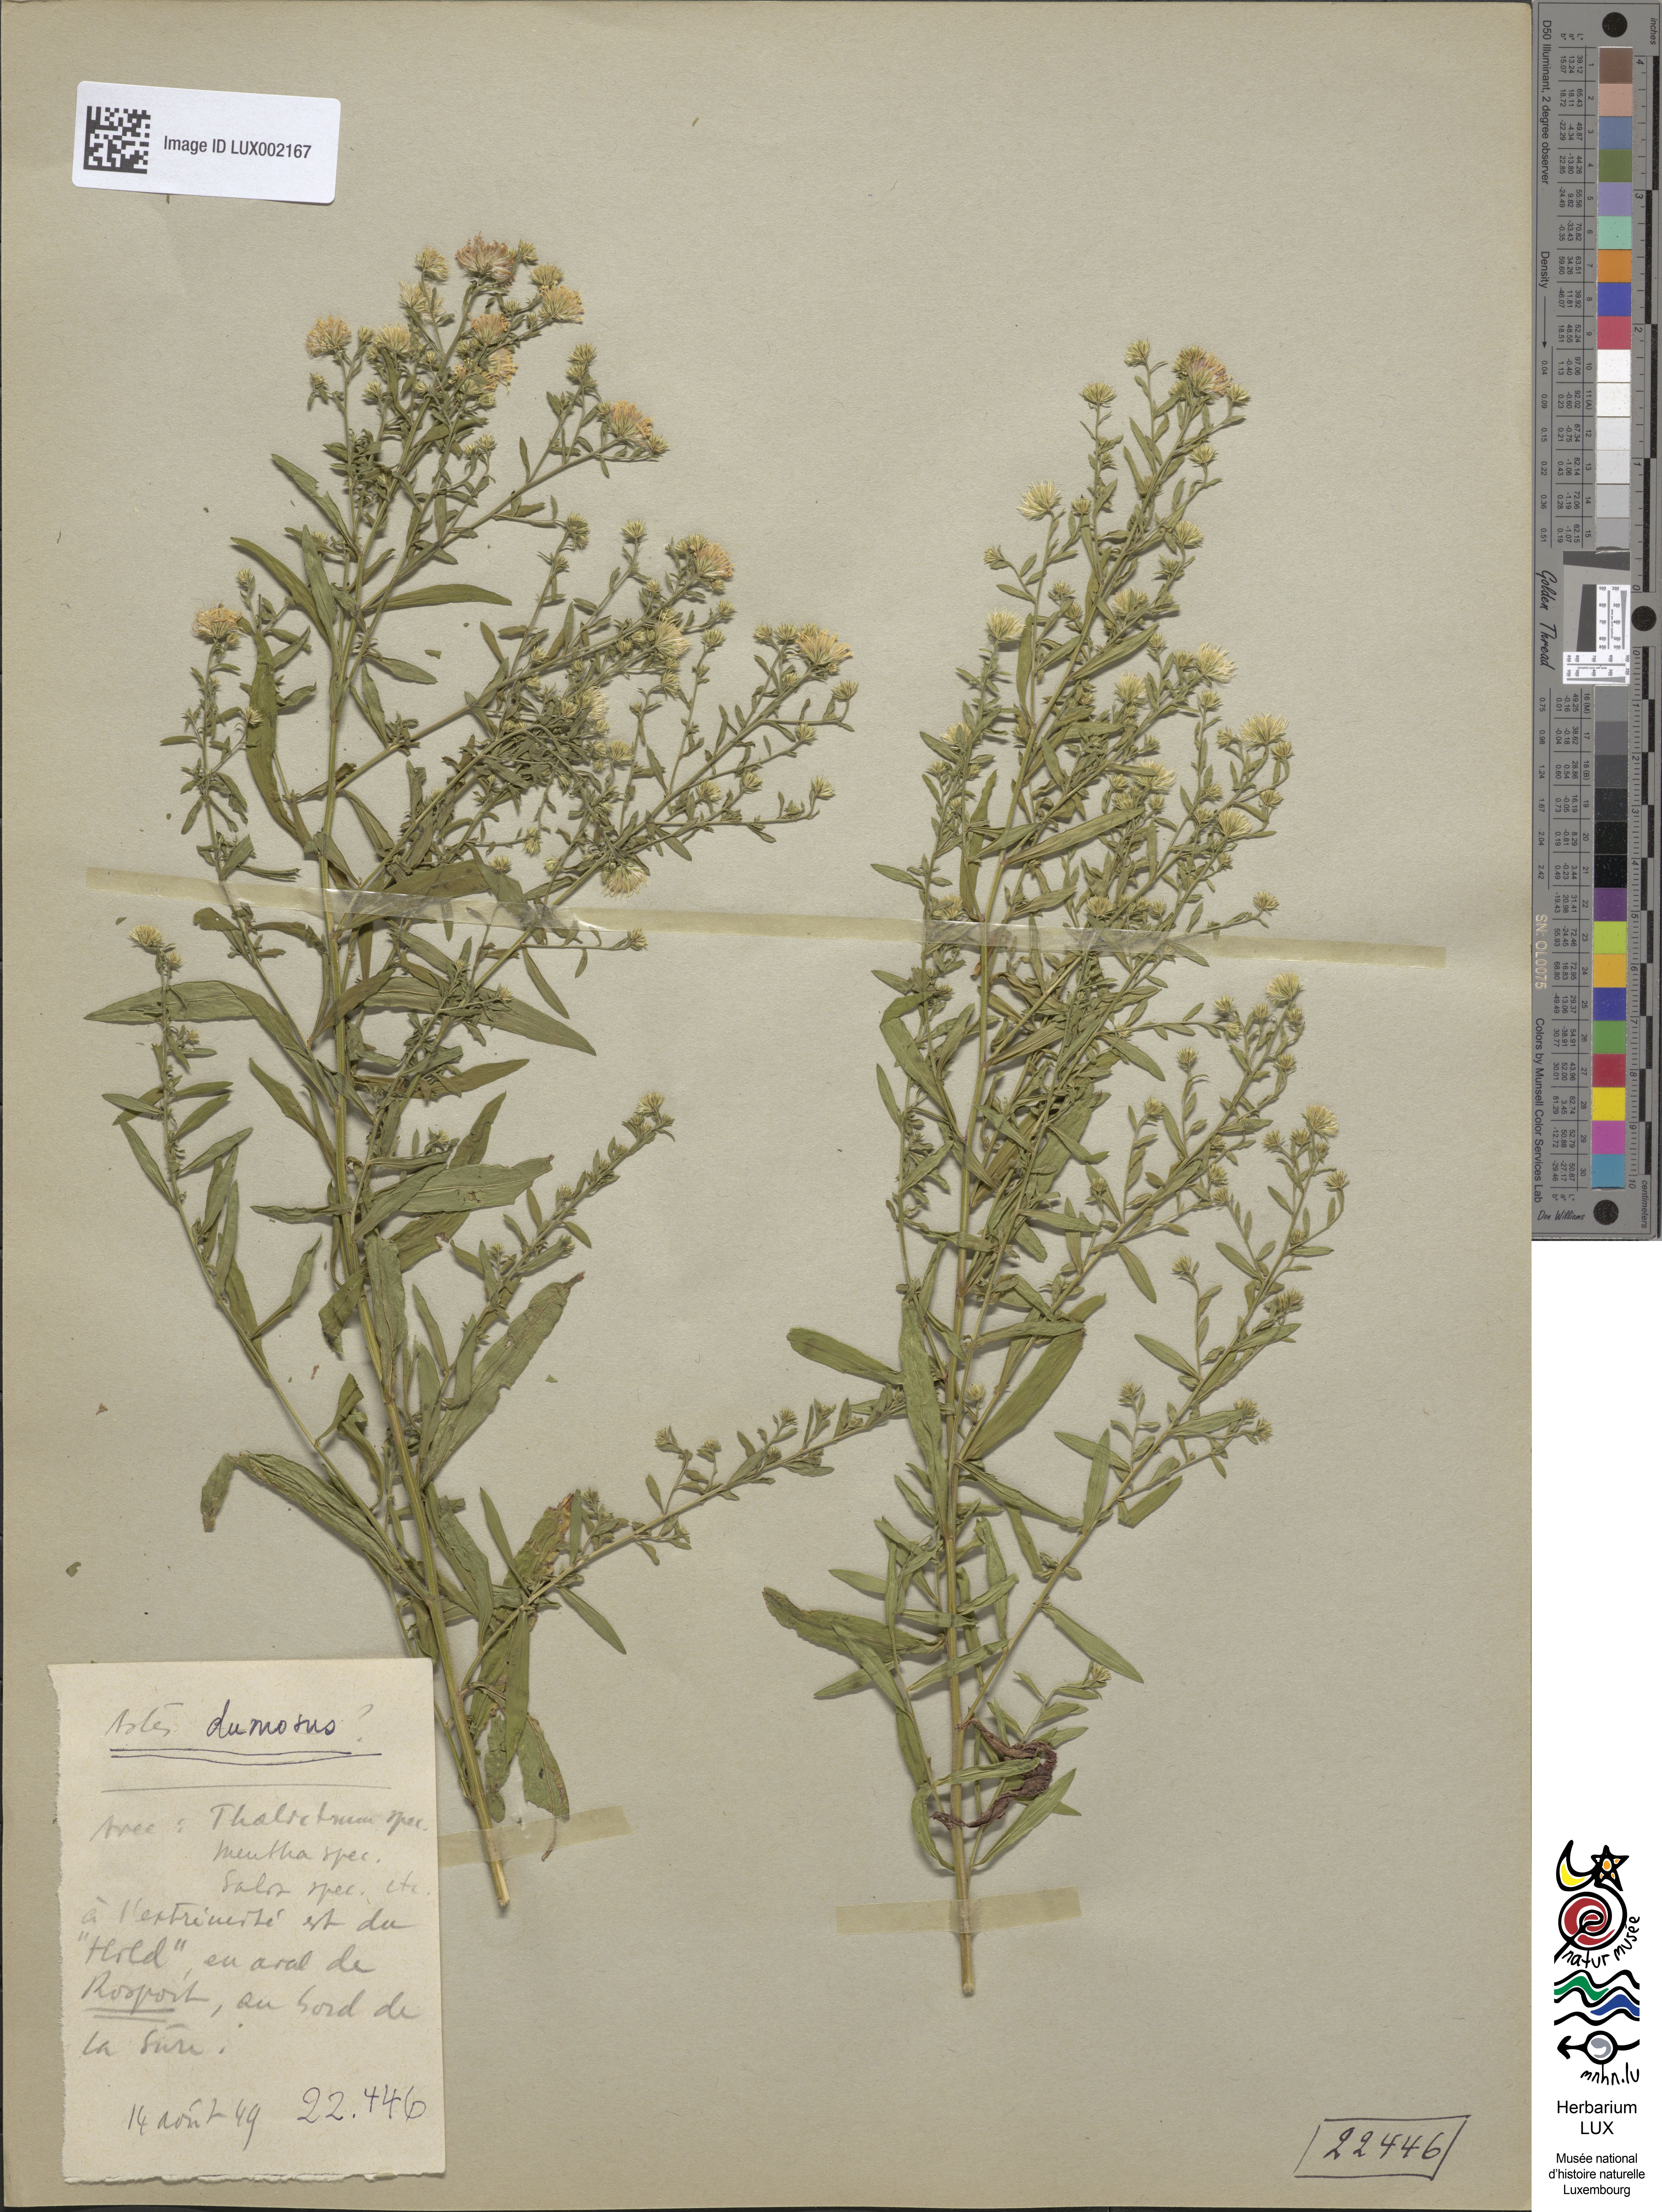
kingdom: Plantae
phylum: Tracheophyta
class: Magnoliopsida
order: Asterales
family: Asteraceae
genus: Symphyotrichum
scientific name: Symphyotrichum dumosum
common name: Bushy aster
